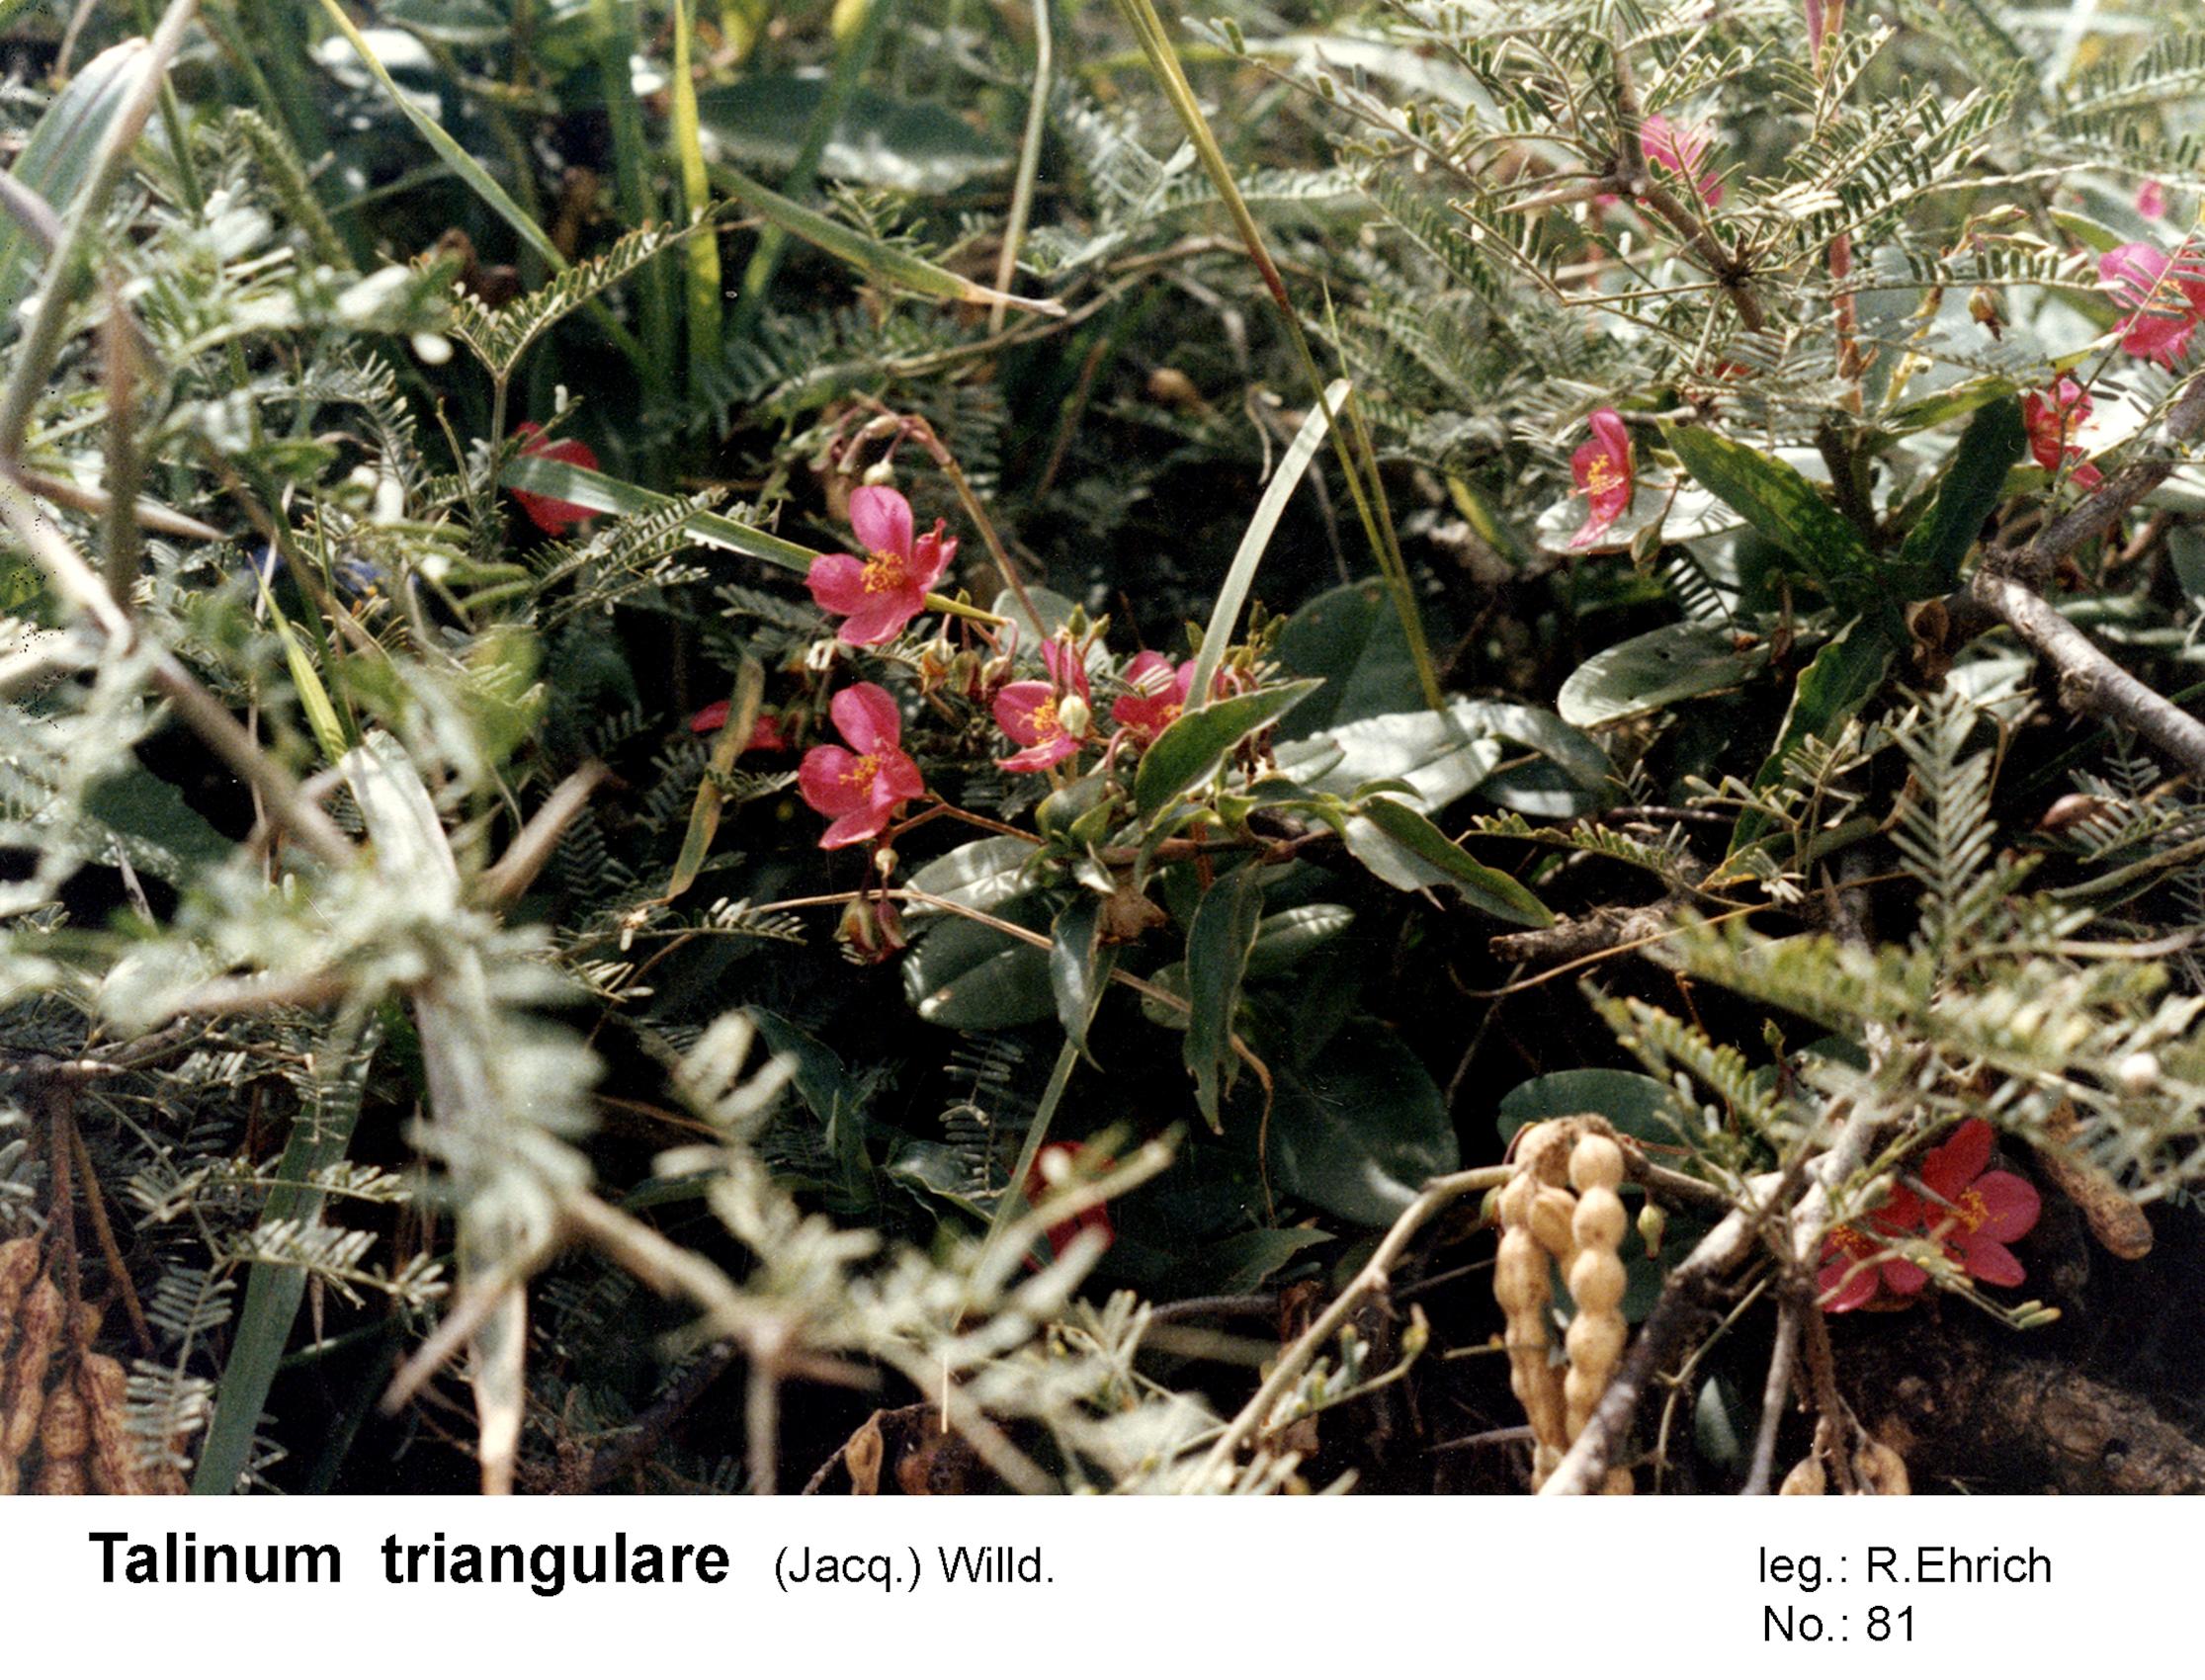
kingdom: Plantae
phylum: Tracheophyta
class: Magnoliopsida
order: Caryophyllales
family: Talinaceae
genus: Talinum
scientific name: Talinum fruticosum
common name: Verdolaga-francesa
